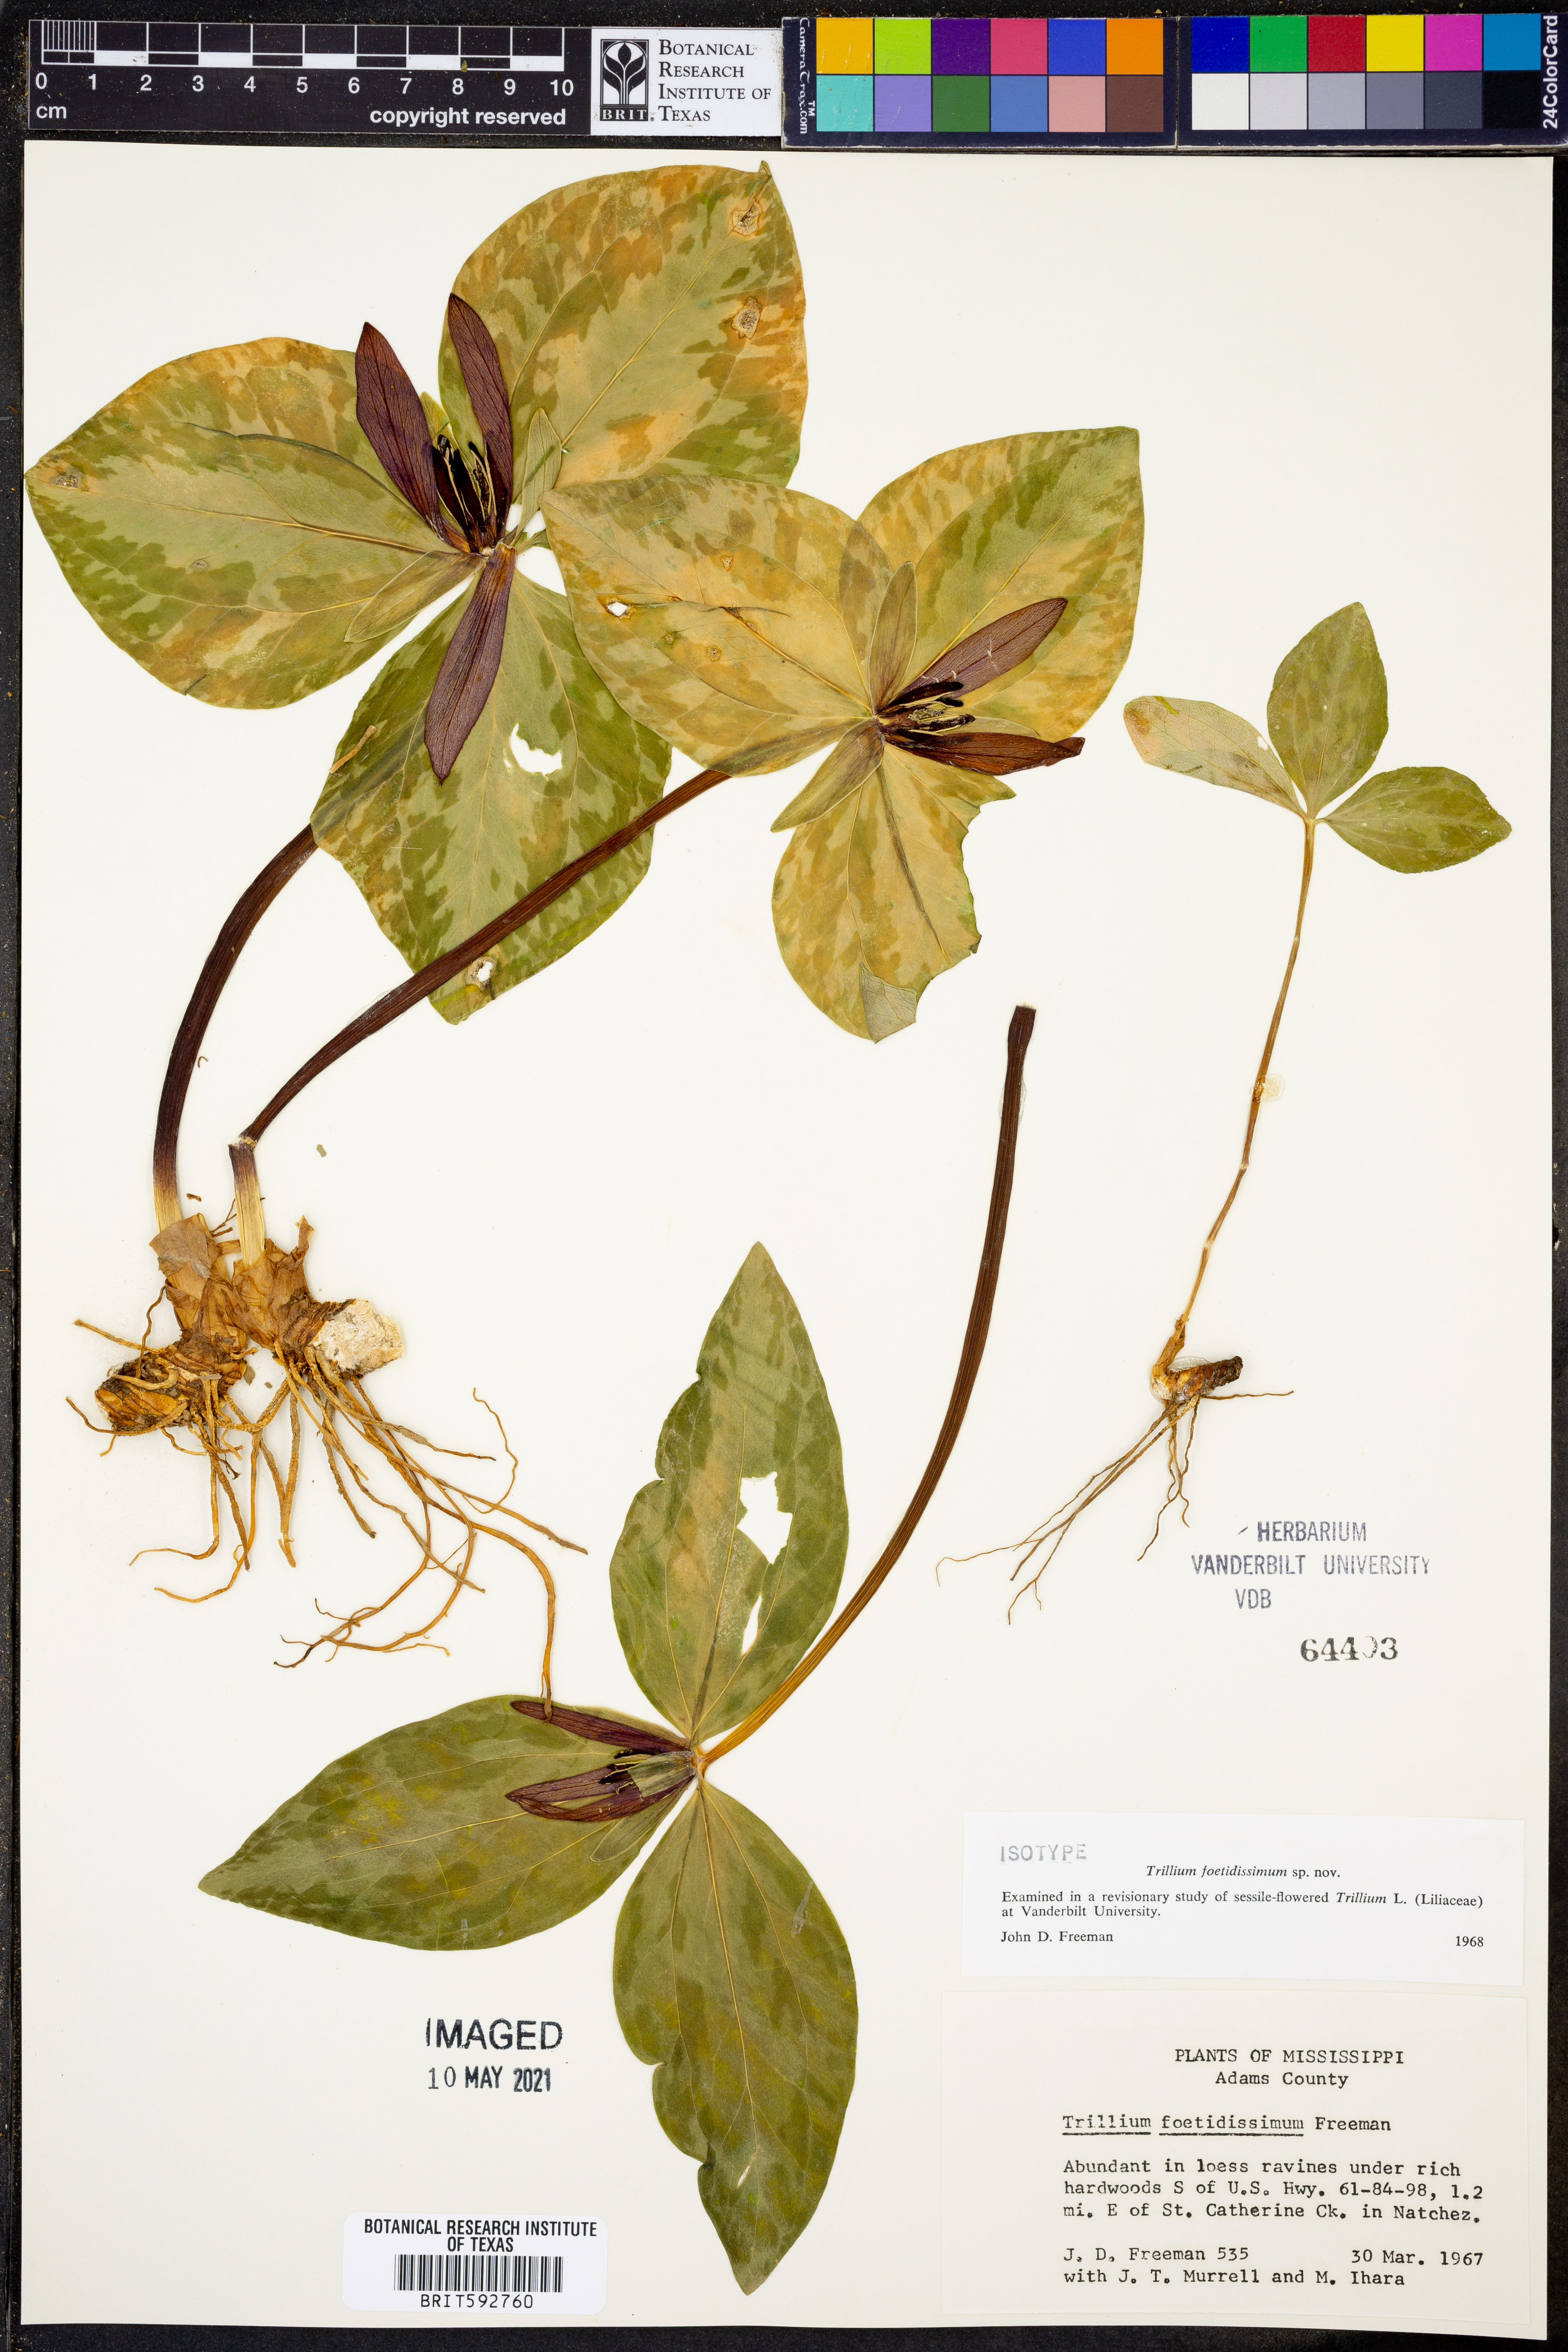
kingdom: Plantae
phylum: Tracheophyta
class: Liliopsida
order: Liliales
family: Melanthiaceae
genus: Trillium
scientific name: Trillium foetidissimum
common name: Mississippi river trillium
